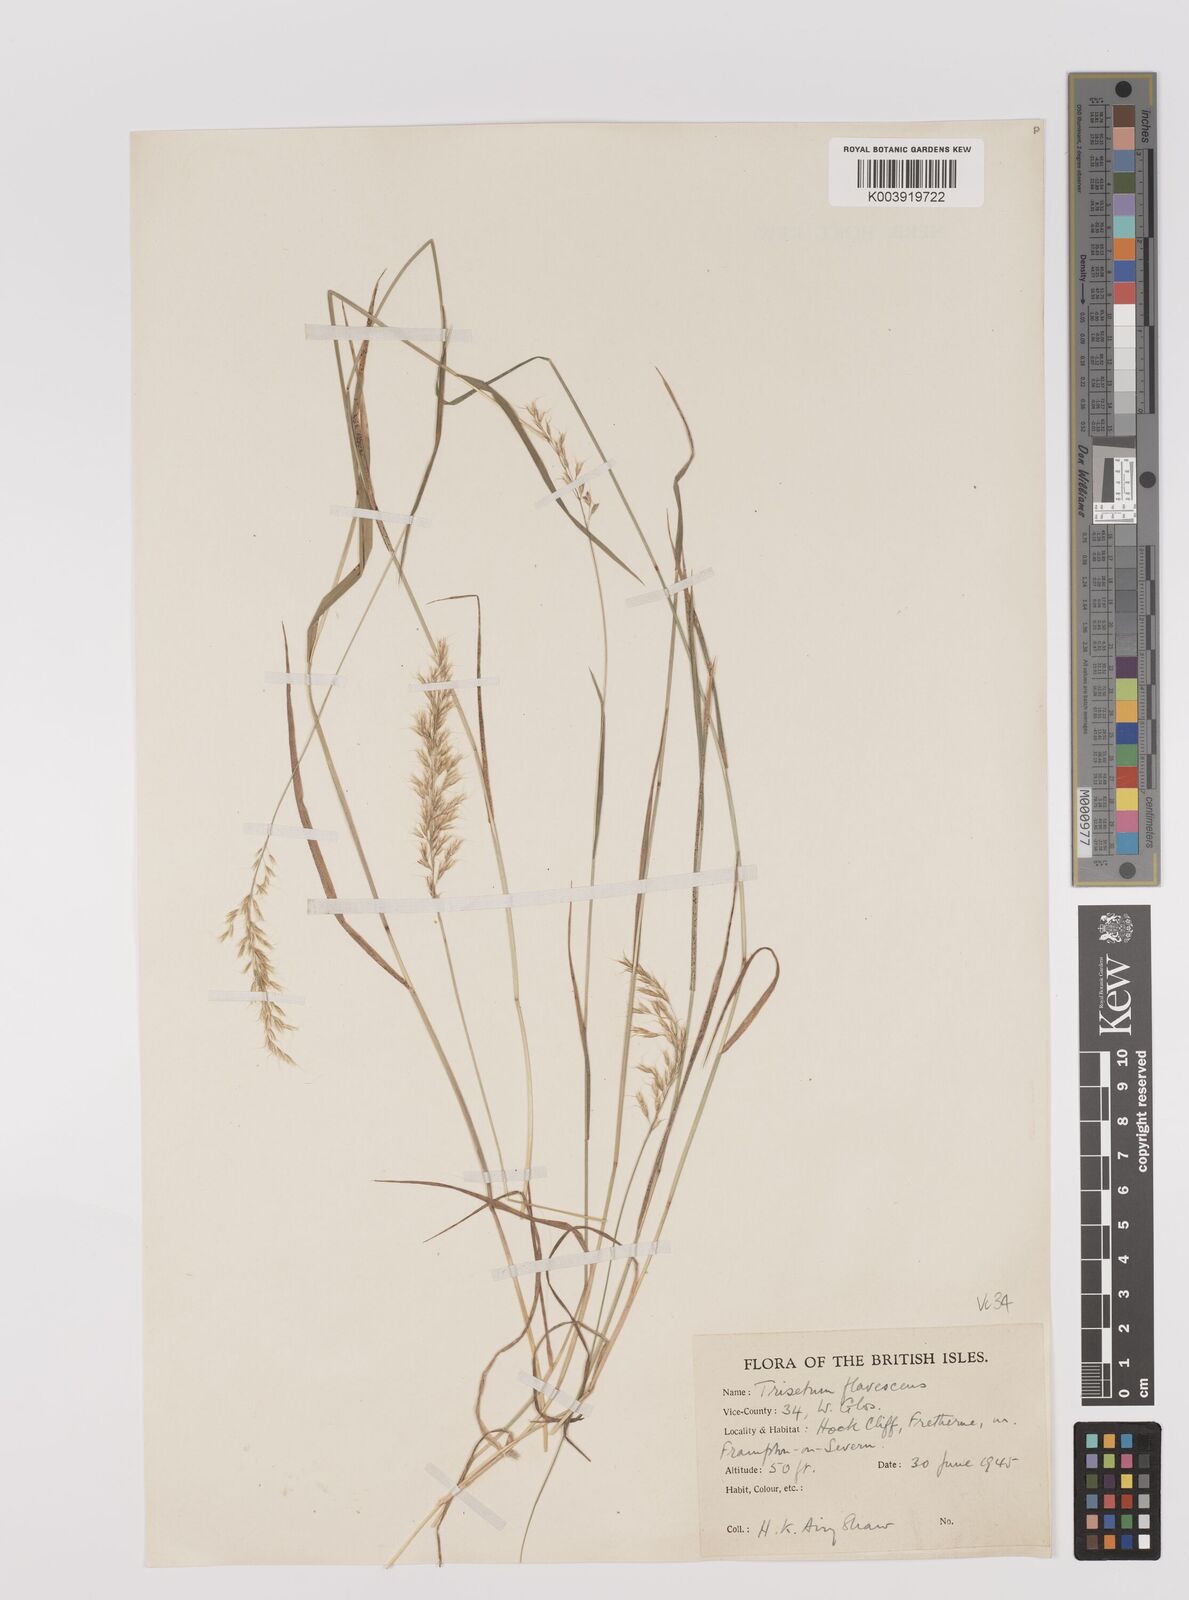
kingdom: Plantae
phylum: Tracheophyta
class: Liliopsida
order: Poales
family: Poaceae
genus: Trisetum
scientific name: Trisetum flavescens
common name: Yellow oat-grass
